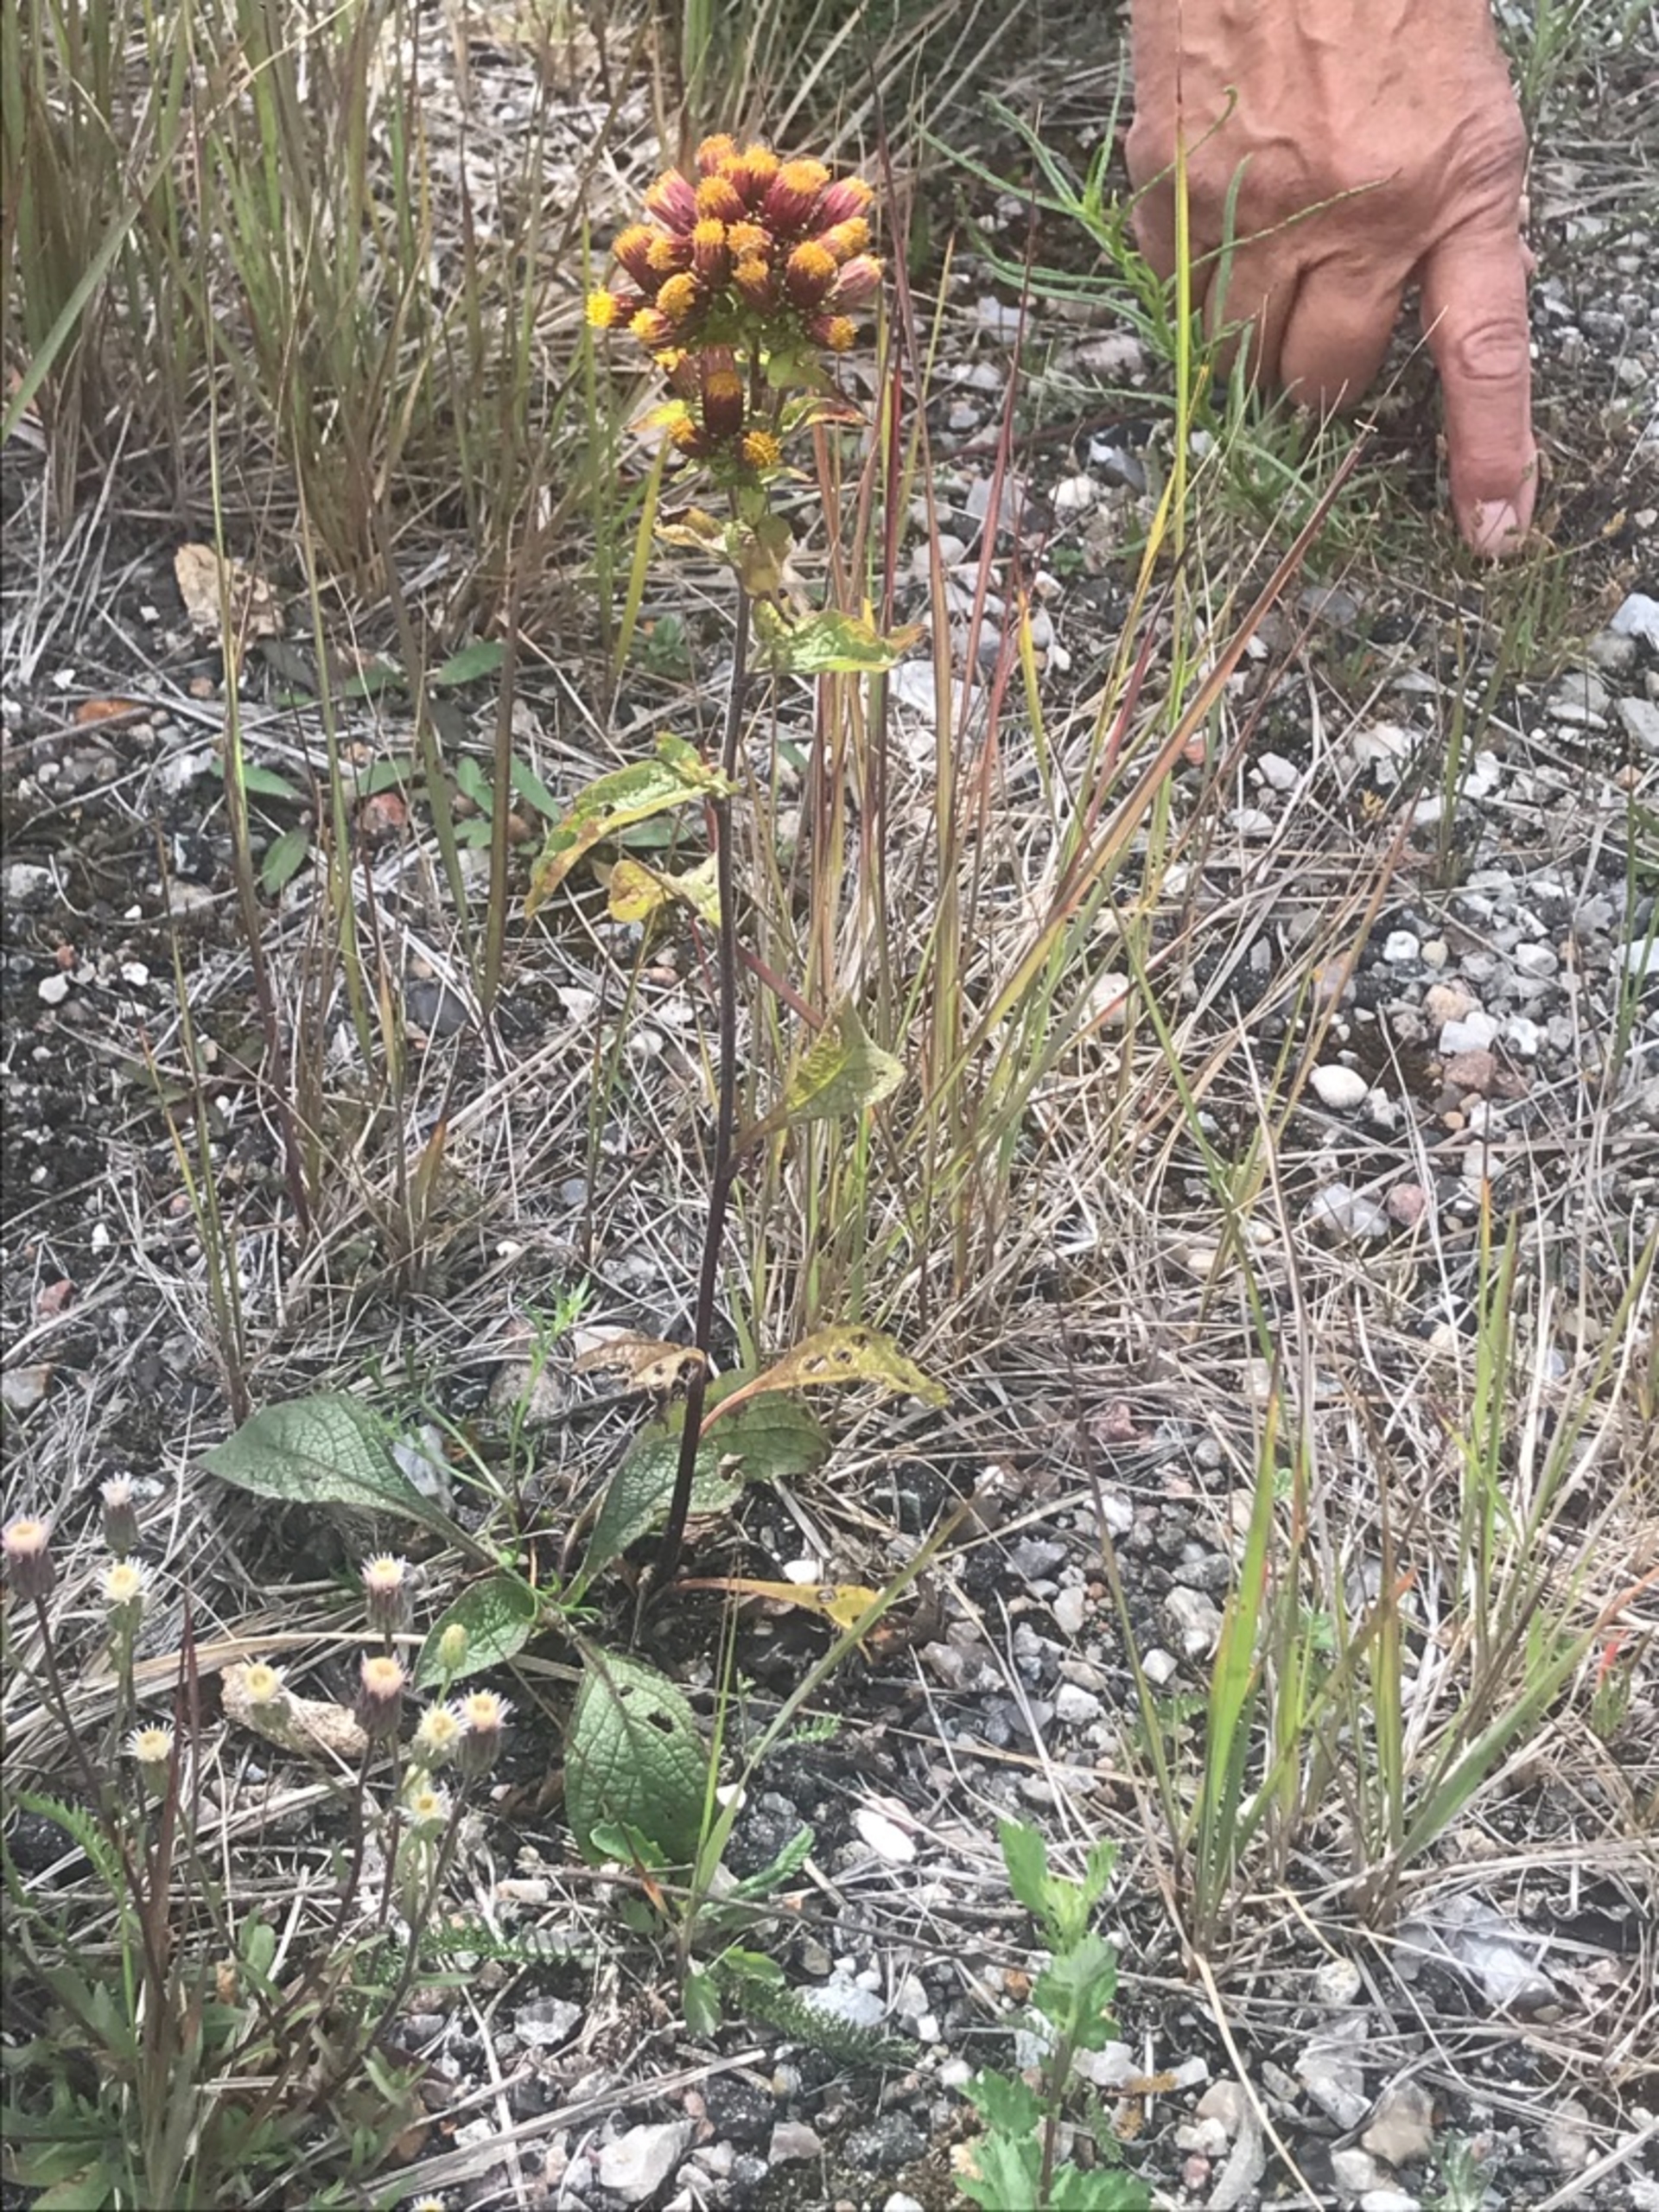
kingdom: Plantae
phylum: Tracheophyta
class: Magnoliopsida
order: Asterales
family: Asteraceae
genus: Pentanema
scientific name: Pentanema squarrosum
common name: Trekløft-alant
